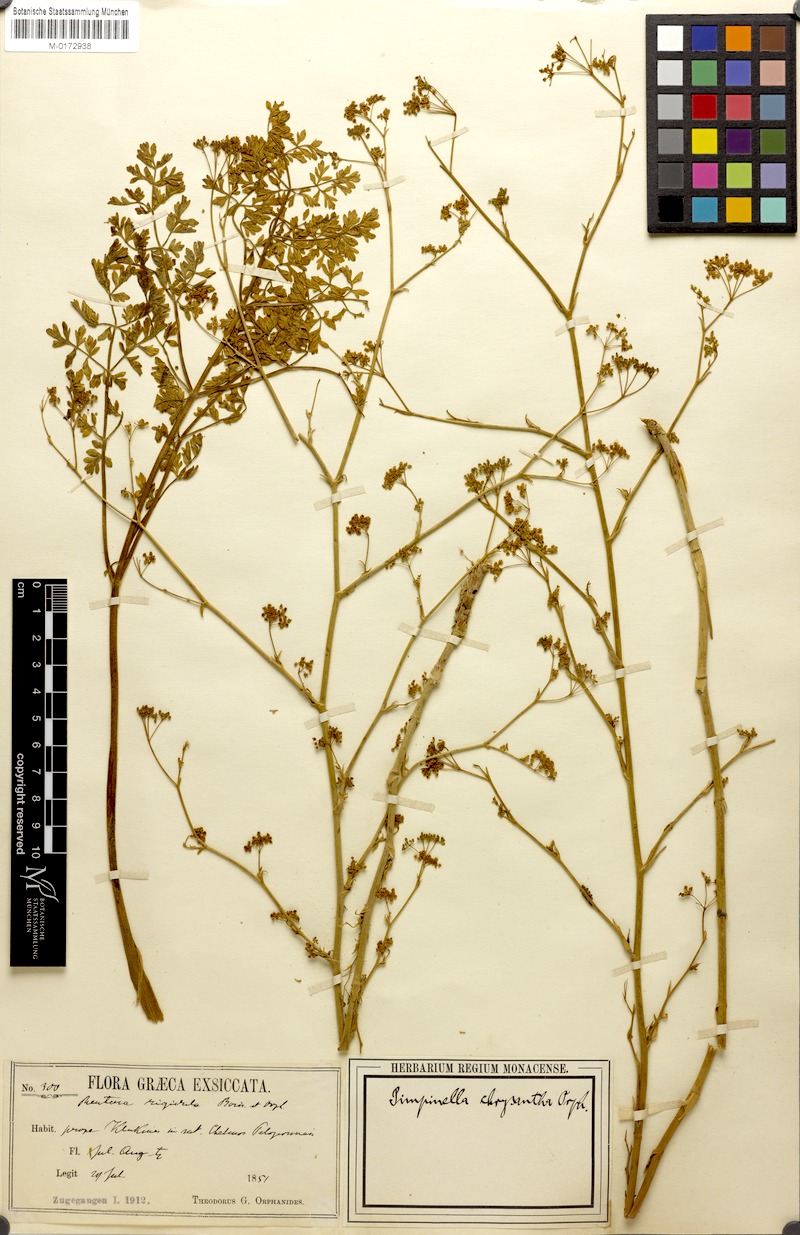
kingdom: Plantae
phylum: Tracheophyta
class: Magnoliopsida
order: Apiales
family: Apiaceae
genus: Pimpinella
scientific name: Pimpinella rigidula
